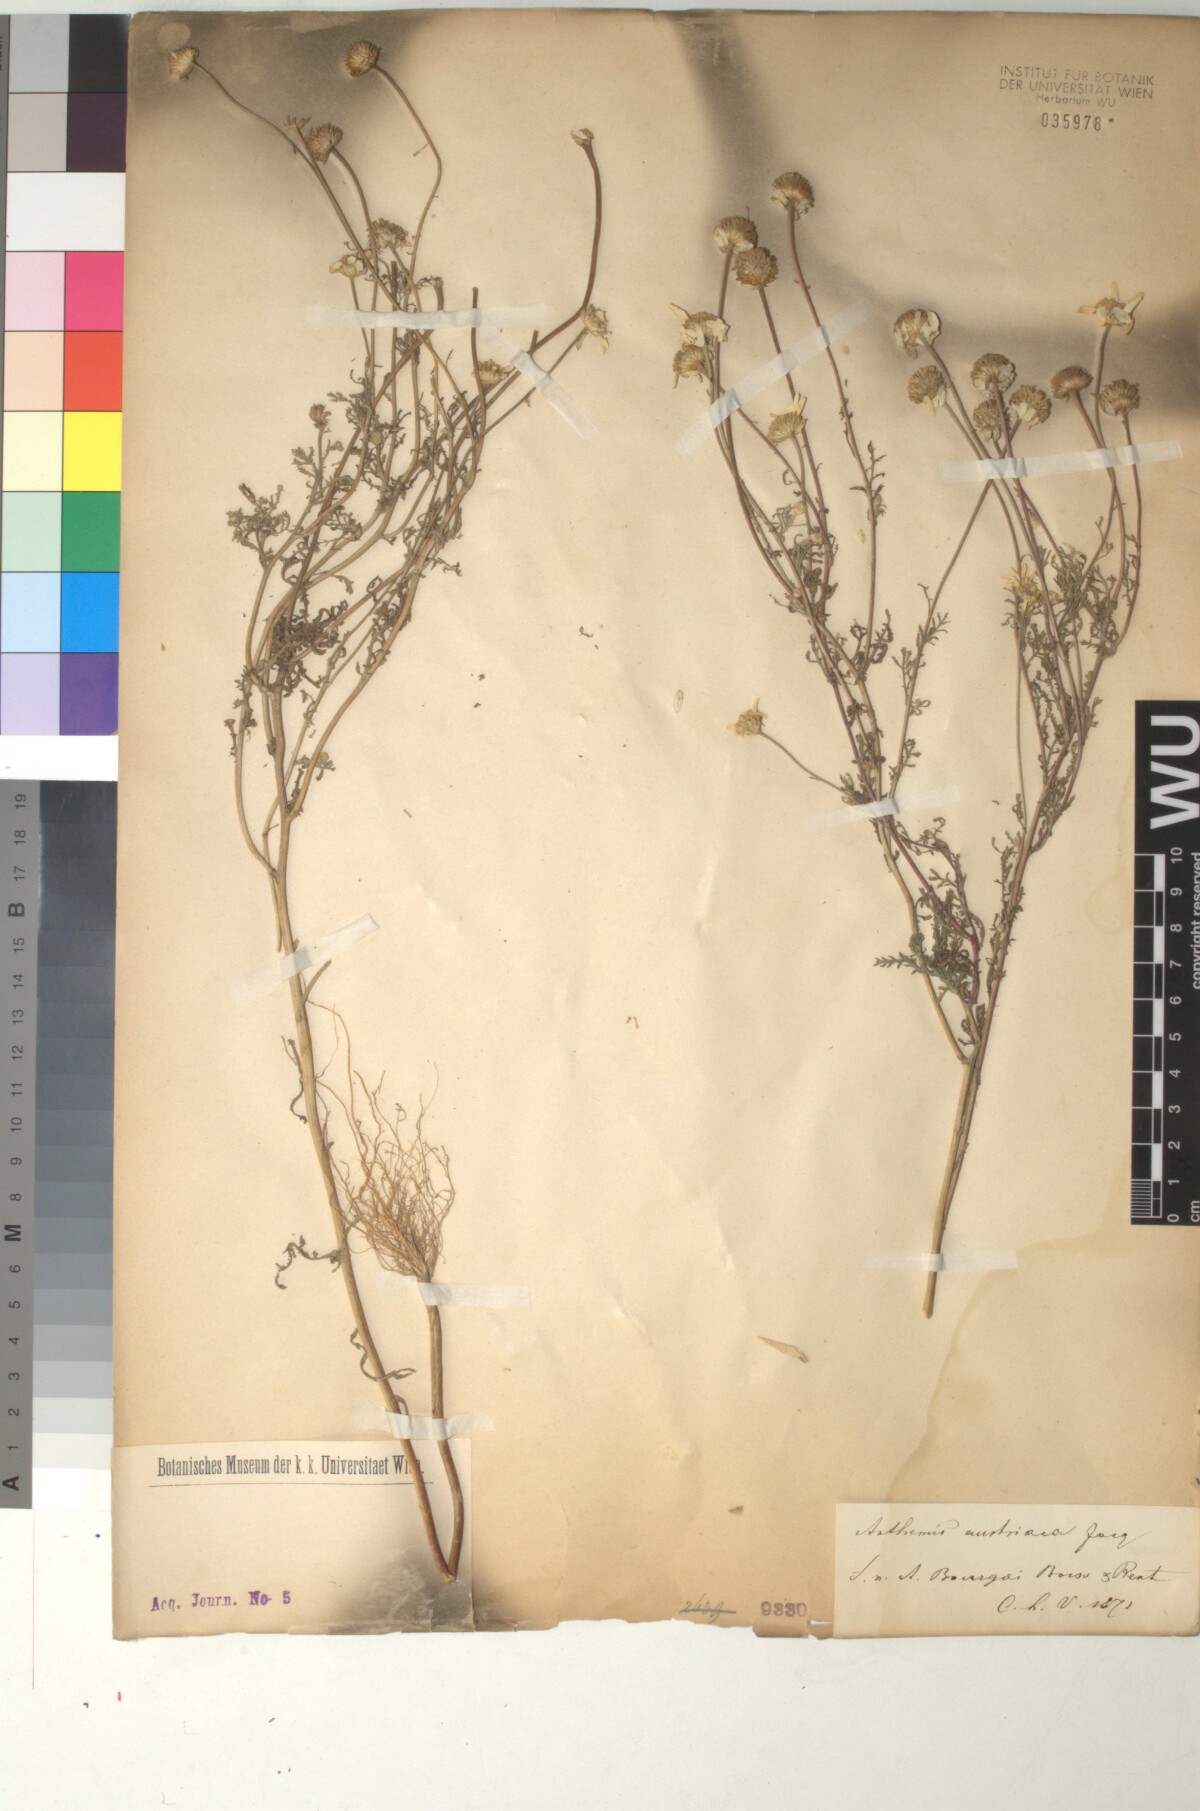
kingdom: Plantae
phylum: Tracheophyta
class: Magnoliopsida
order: Asterales
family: Asteraceae
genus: Cota
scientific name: Cota austriaca
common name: Austrian chamomile
